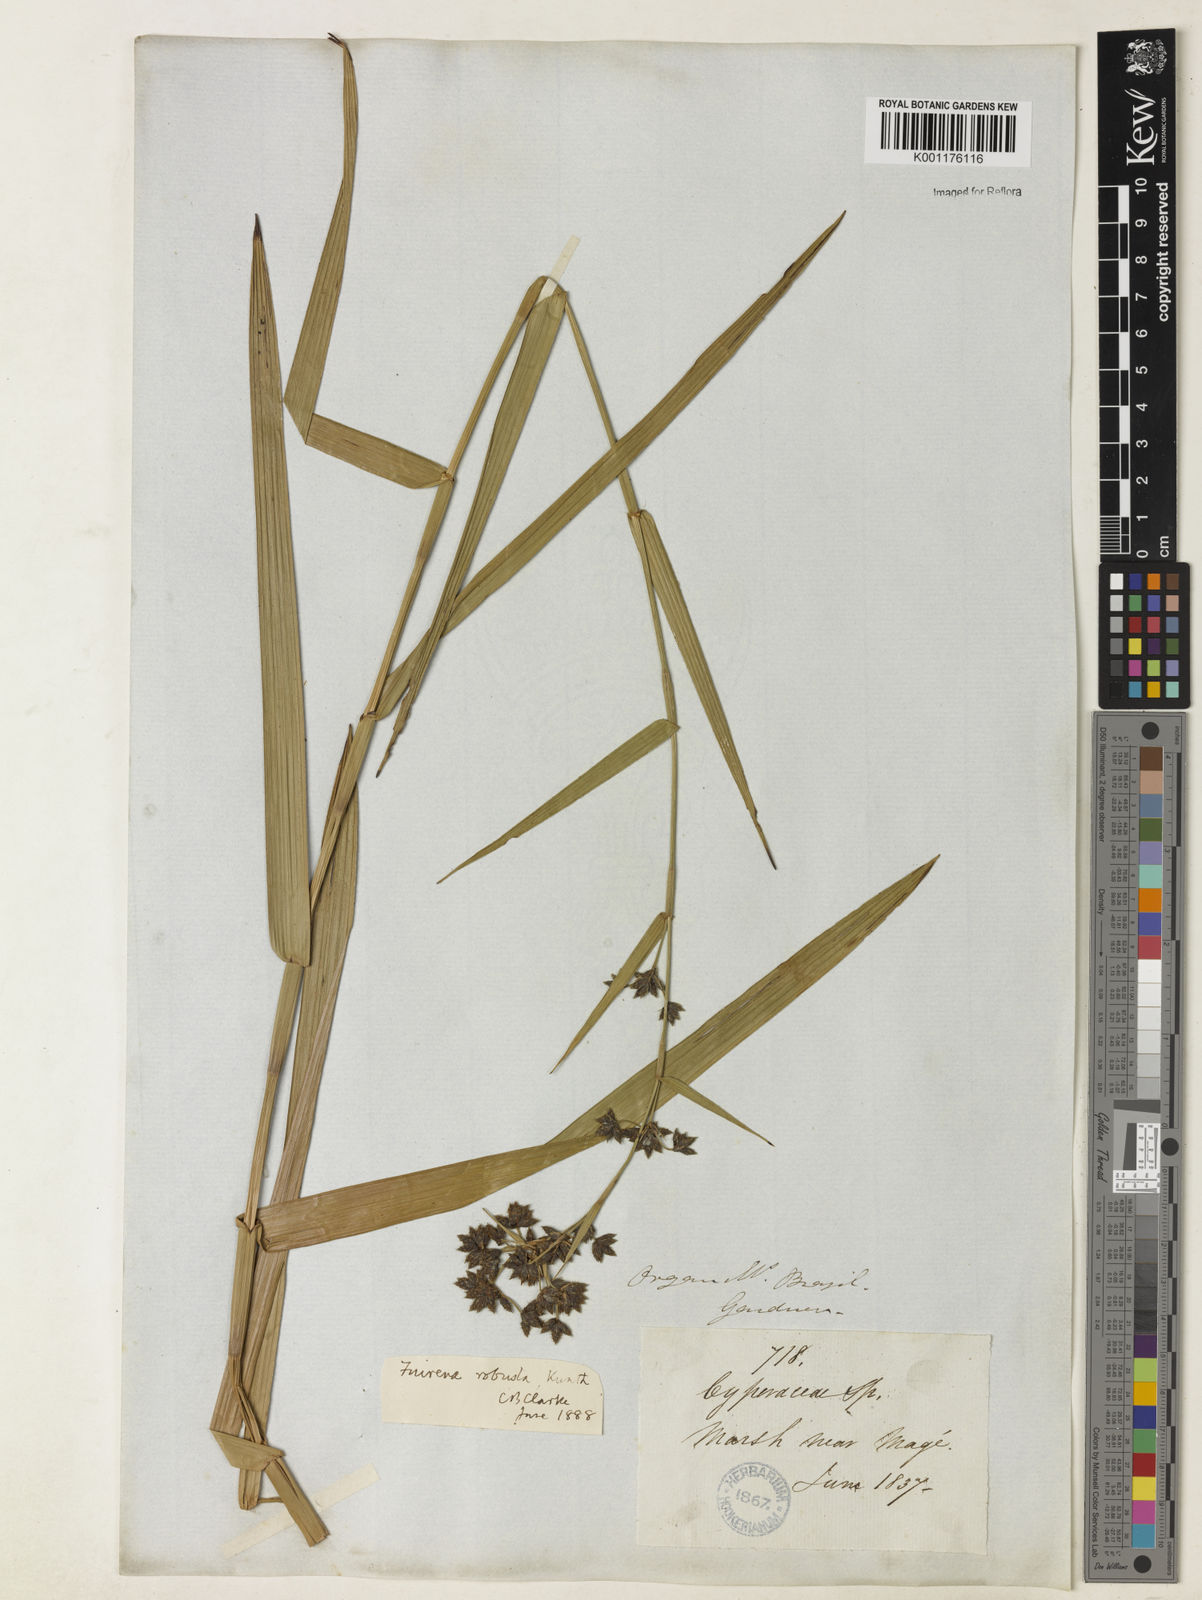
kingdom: Plantae
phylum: Tracheophyta
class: Liliopsida
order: Poales
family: Cyperaceae
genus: Fuirena
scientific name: Fuirena robusta
